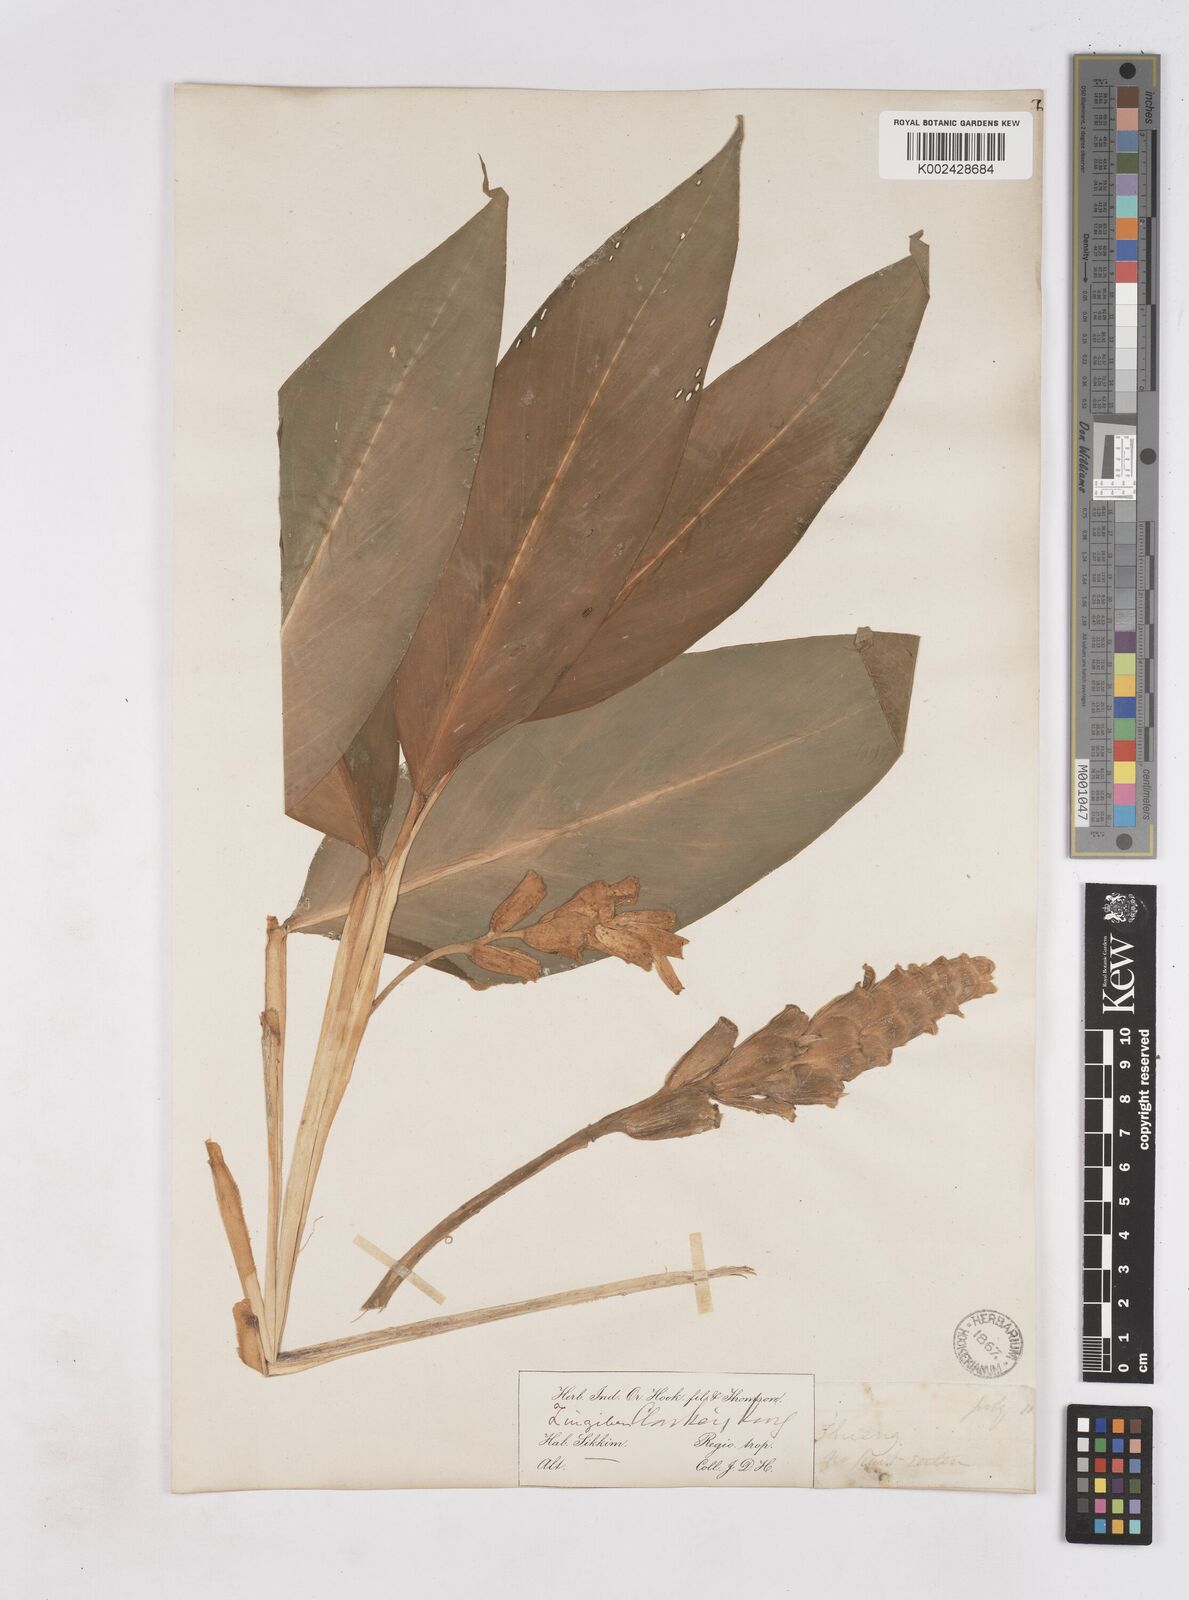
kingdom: Plantae
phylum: Tracheophyta
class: Liliopsida
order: Zingiberales
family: Zingiberaceae
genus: Zingiber
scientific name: Zingiber clarkei
